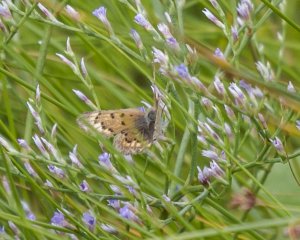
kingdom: Animalia
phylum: Arthropoda
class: Insecta
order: Lepidoptera
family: Lycaenidae
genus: Epidemia
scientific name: Epidemia dorcas
